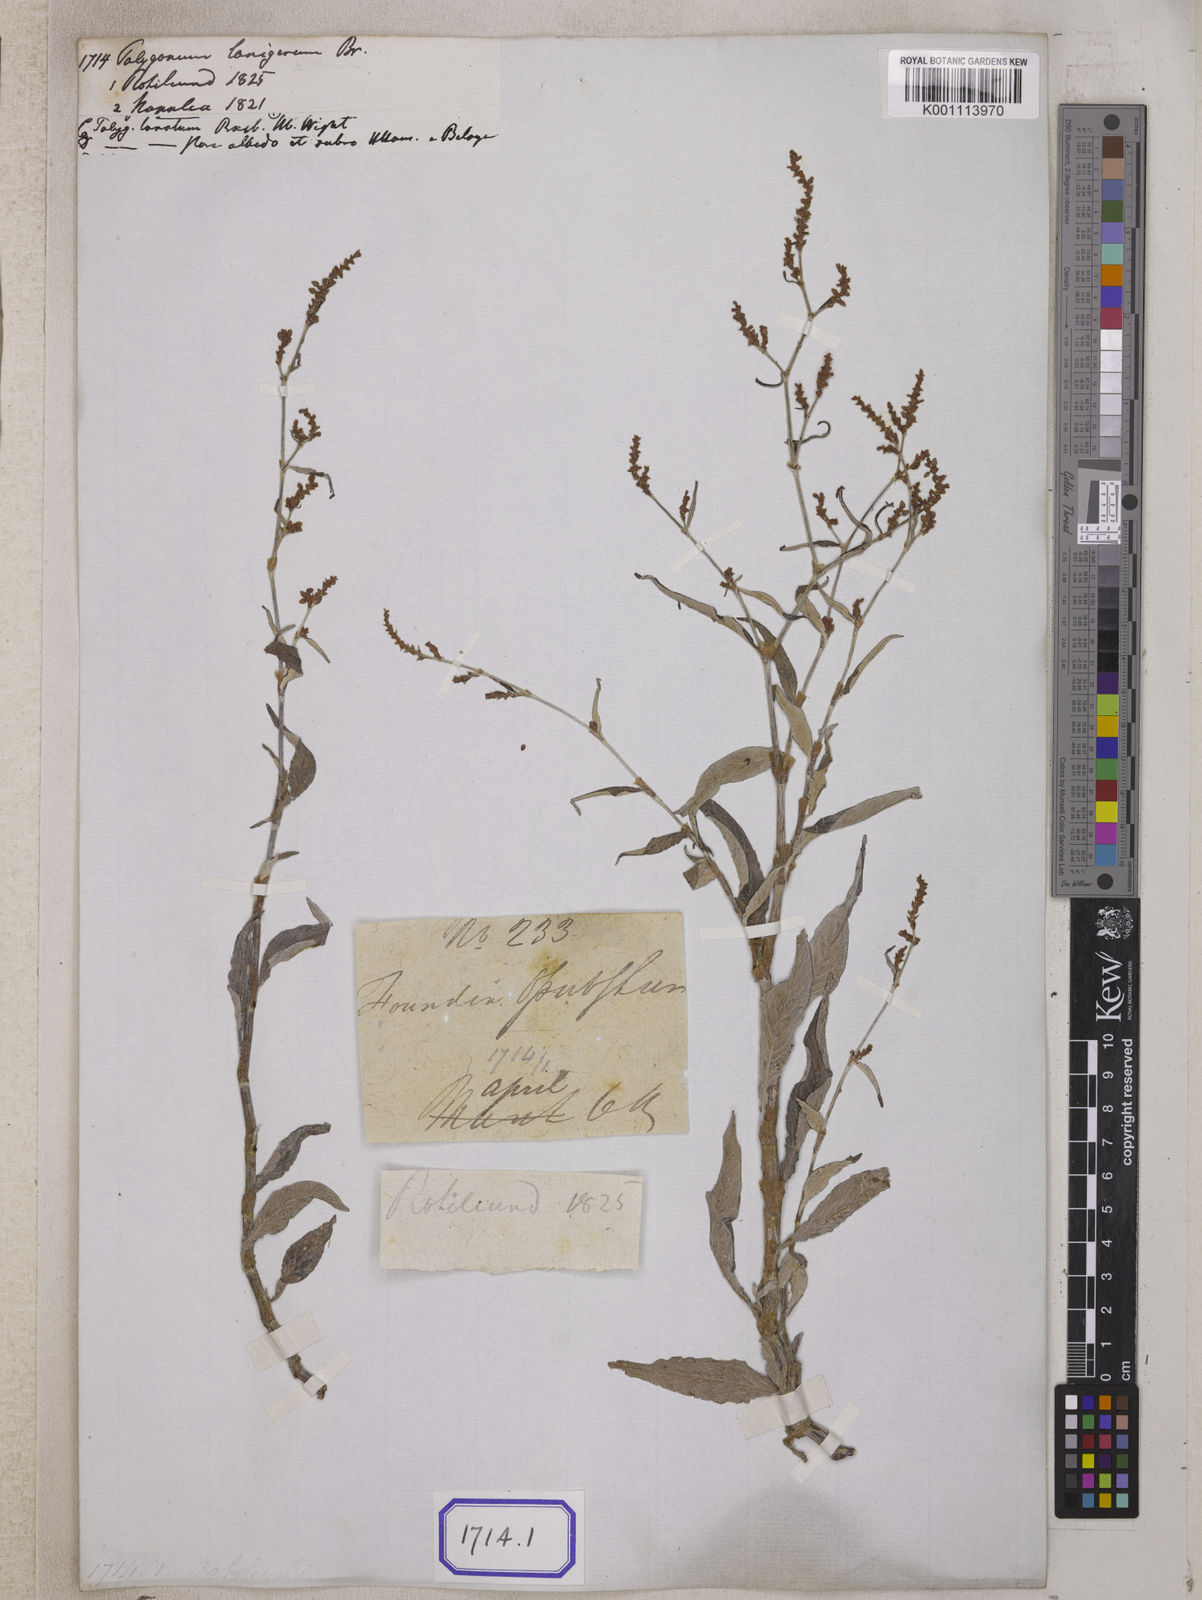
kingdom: Plantae
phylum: Tracheophyta
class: Magnoliopsida
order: Caryophyllales
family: Polygonaceae
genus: Persicaria
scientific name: Persicaria lanigera
